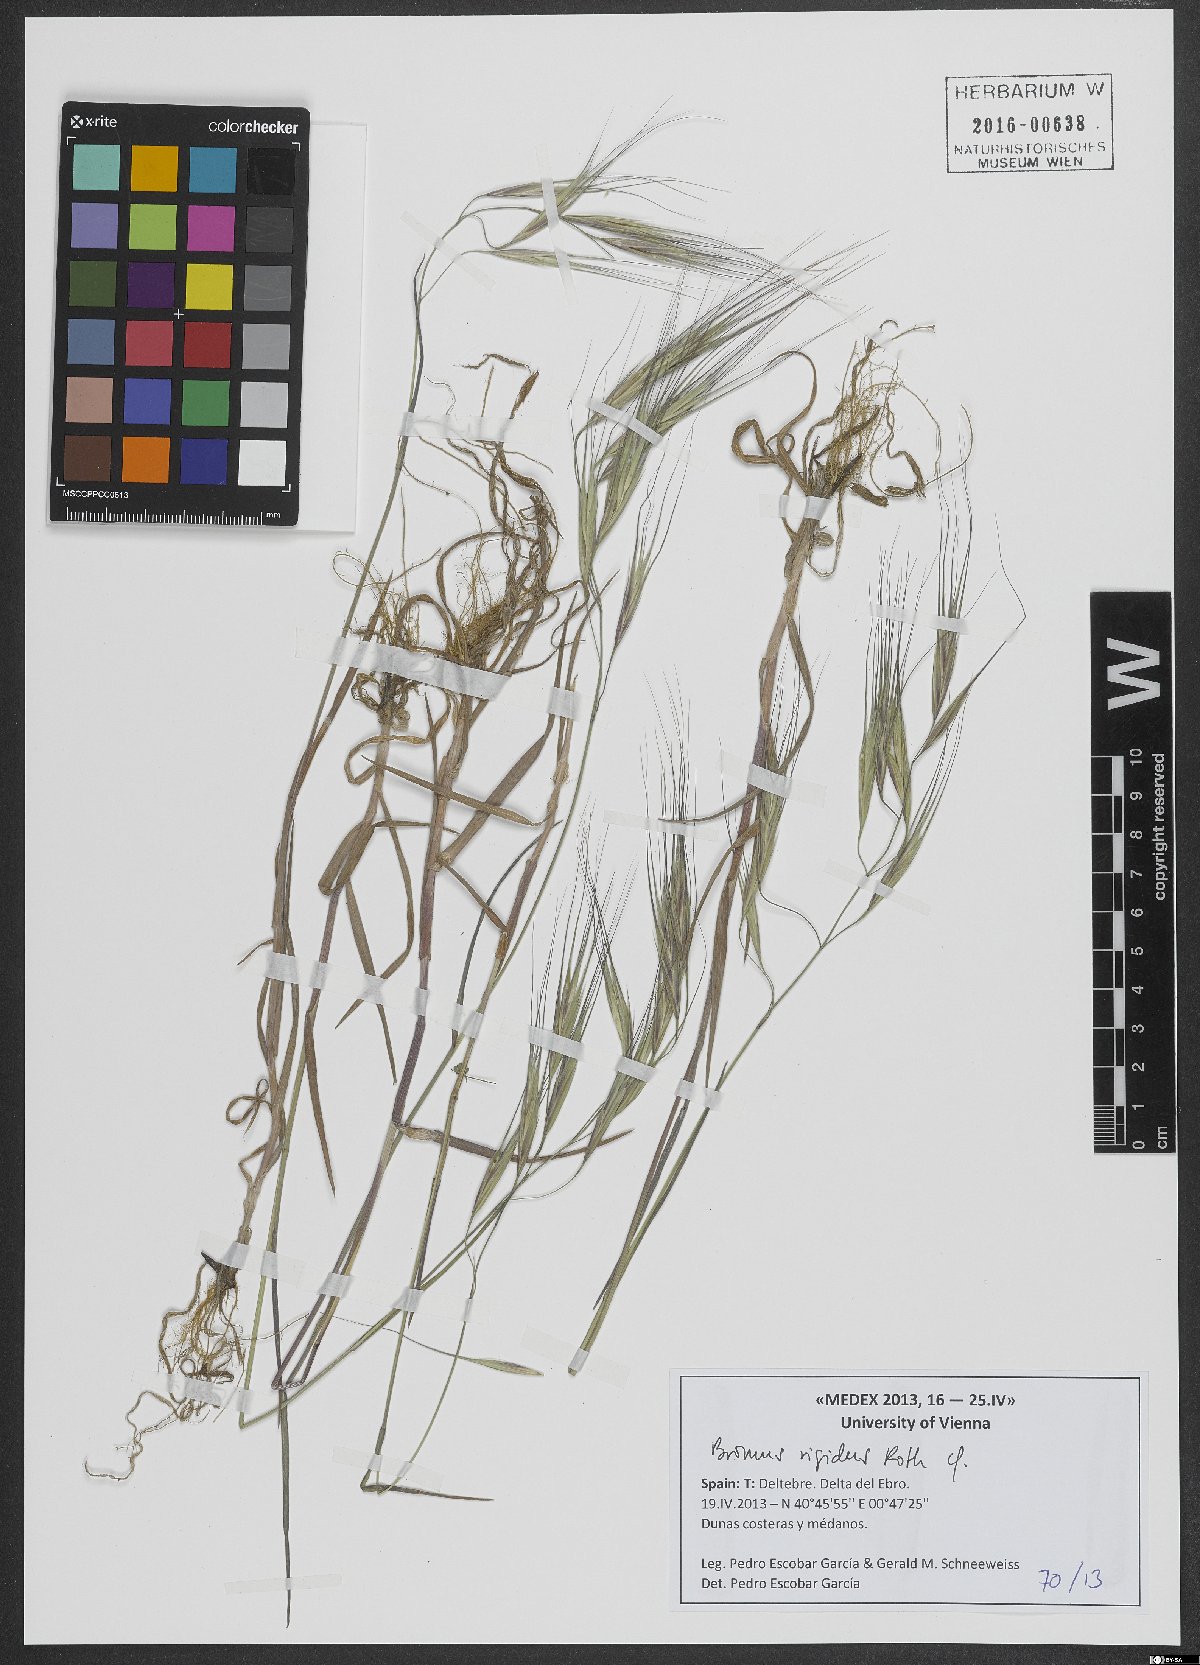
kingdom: Plantae
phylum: Tracheophyta
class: Liliopsida
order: Poales
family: Poaceae
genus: Bromus
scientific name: Bromus rigidus
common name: Ripgut brome
